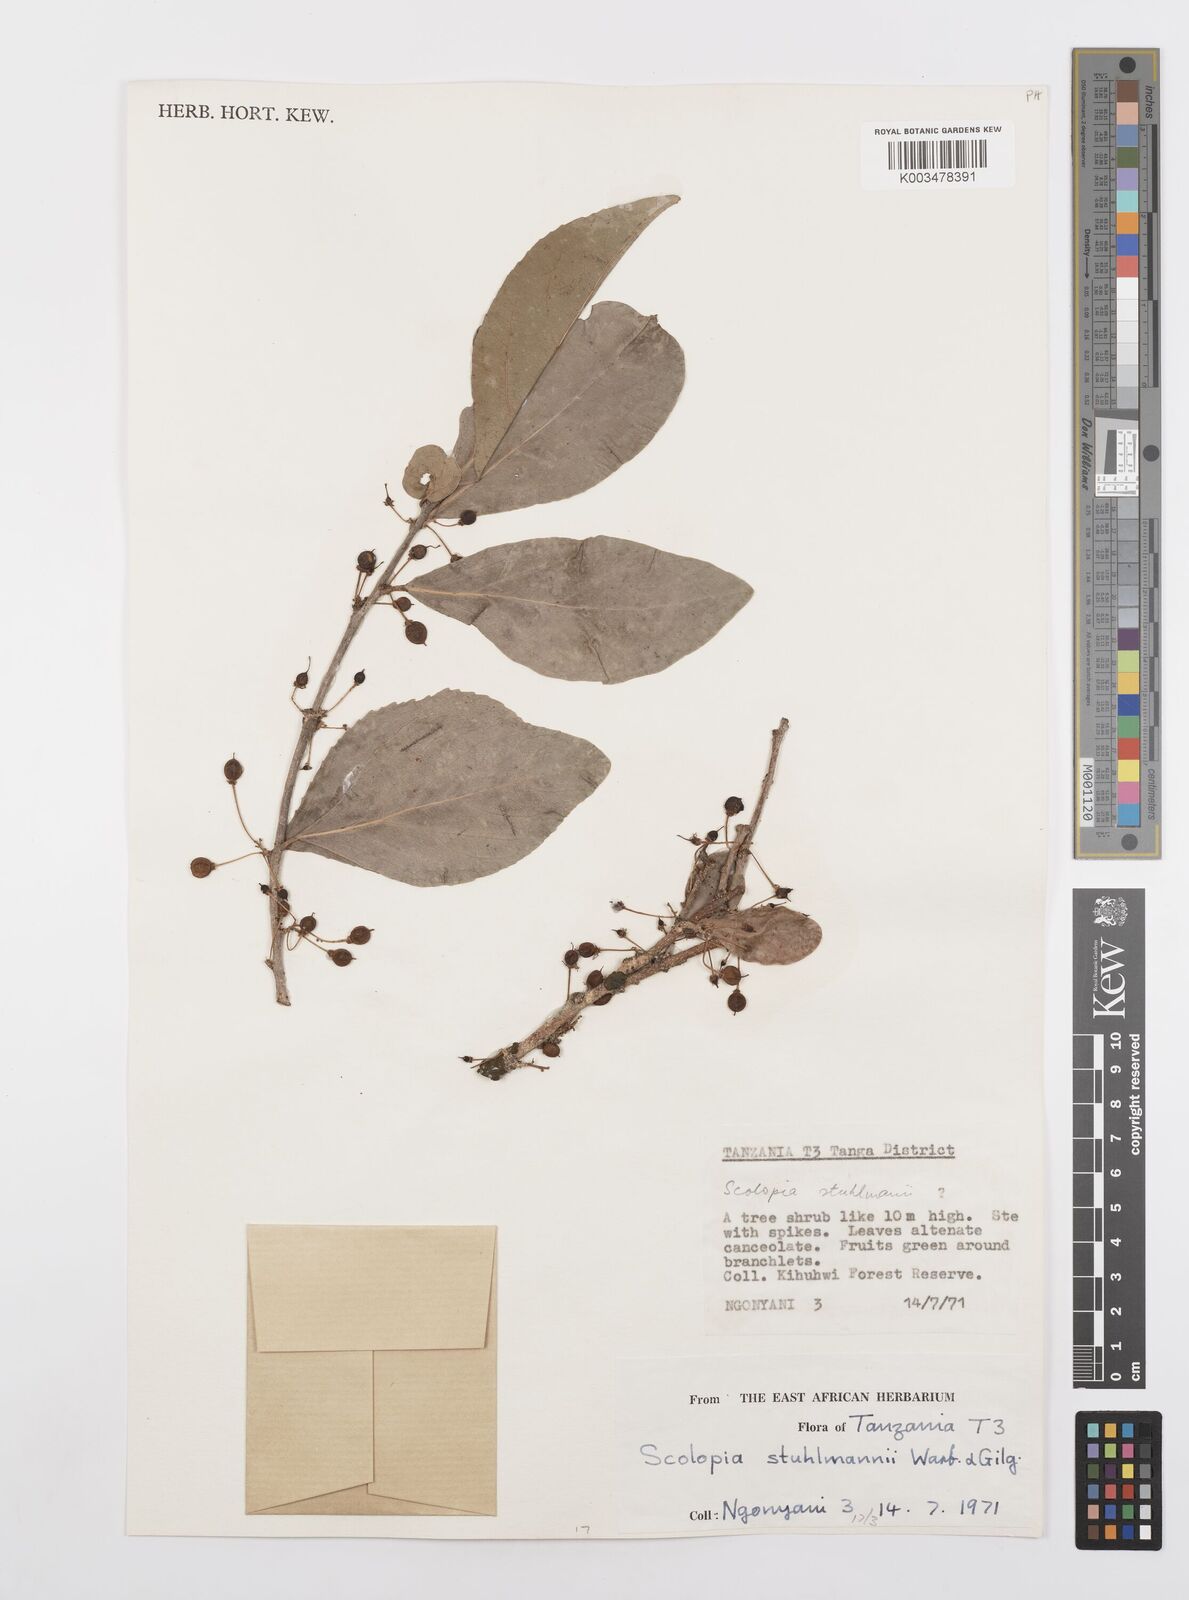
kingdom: Plantae
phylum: Tracheophyta
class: Magnoliopsida
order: Malpighiales
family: Salicaceae
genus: Scolopia
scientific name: Scolopia zeyheri
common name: Thorn pear
